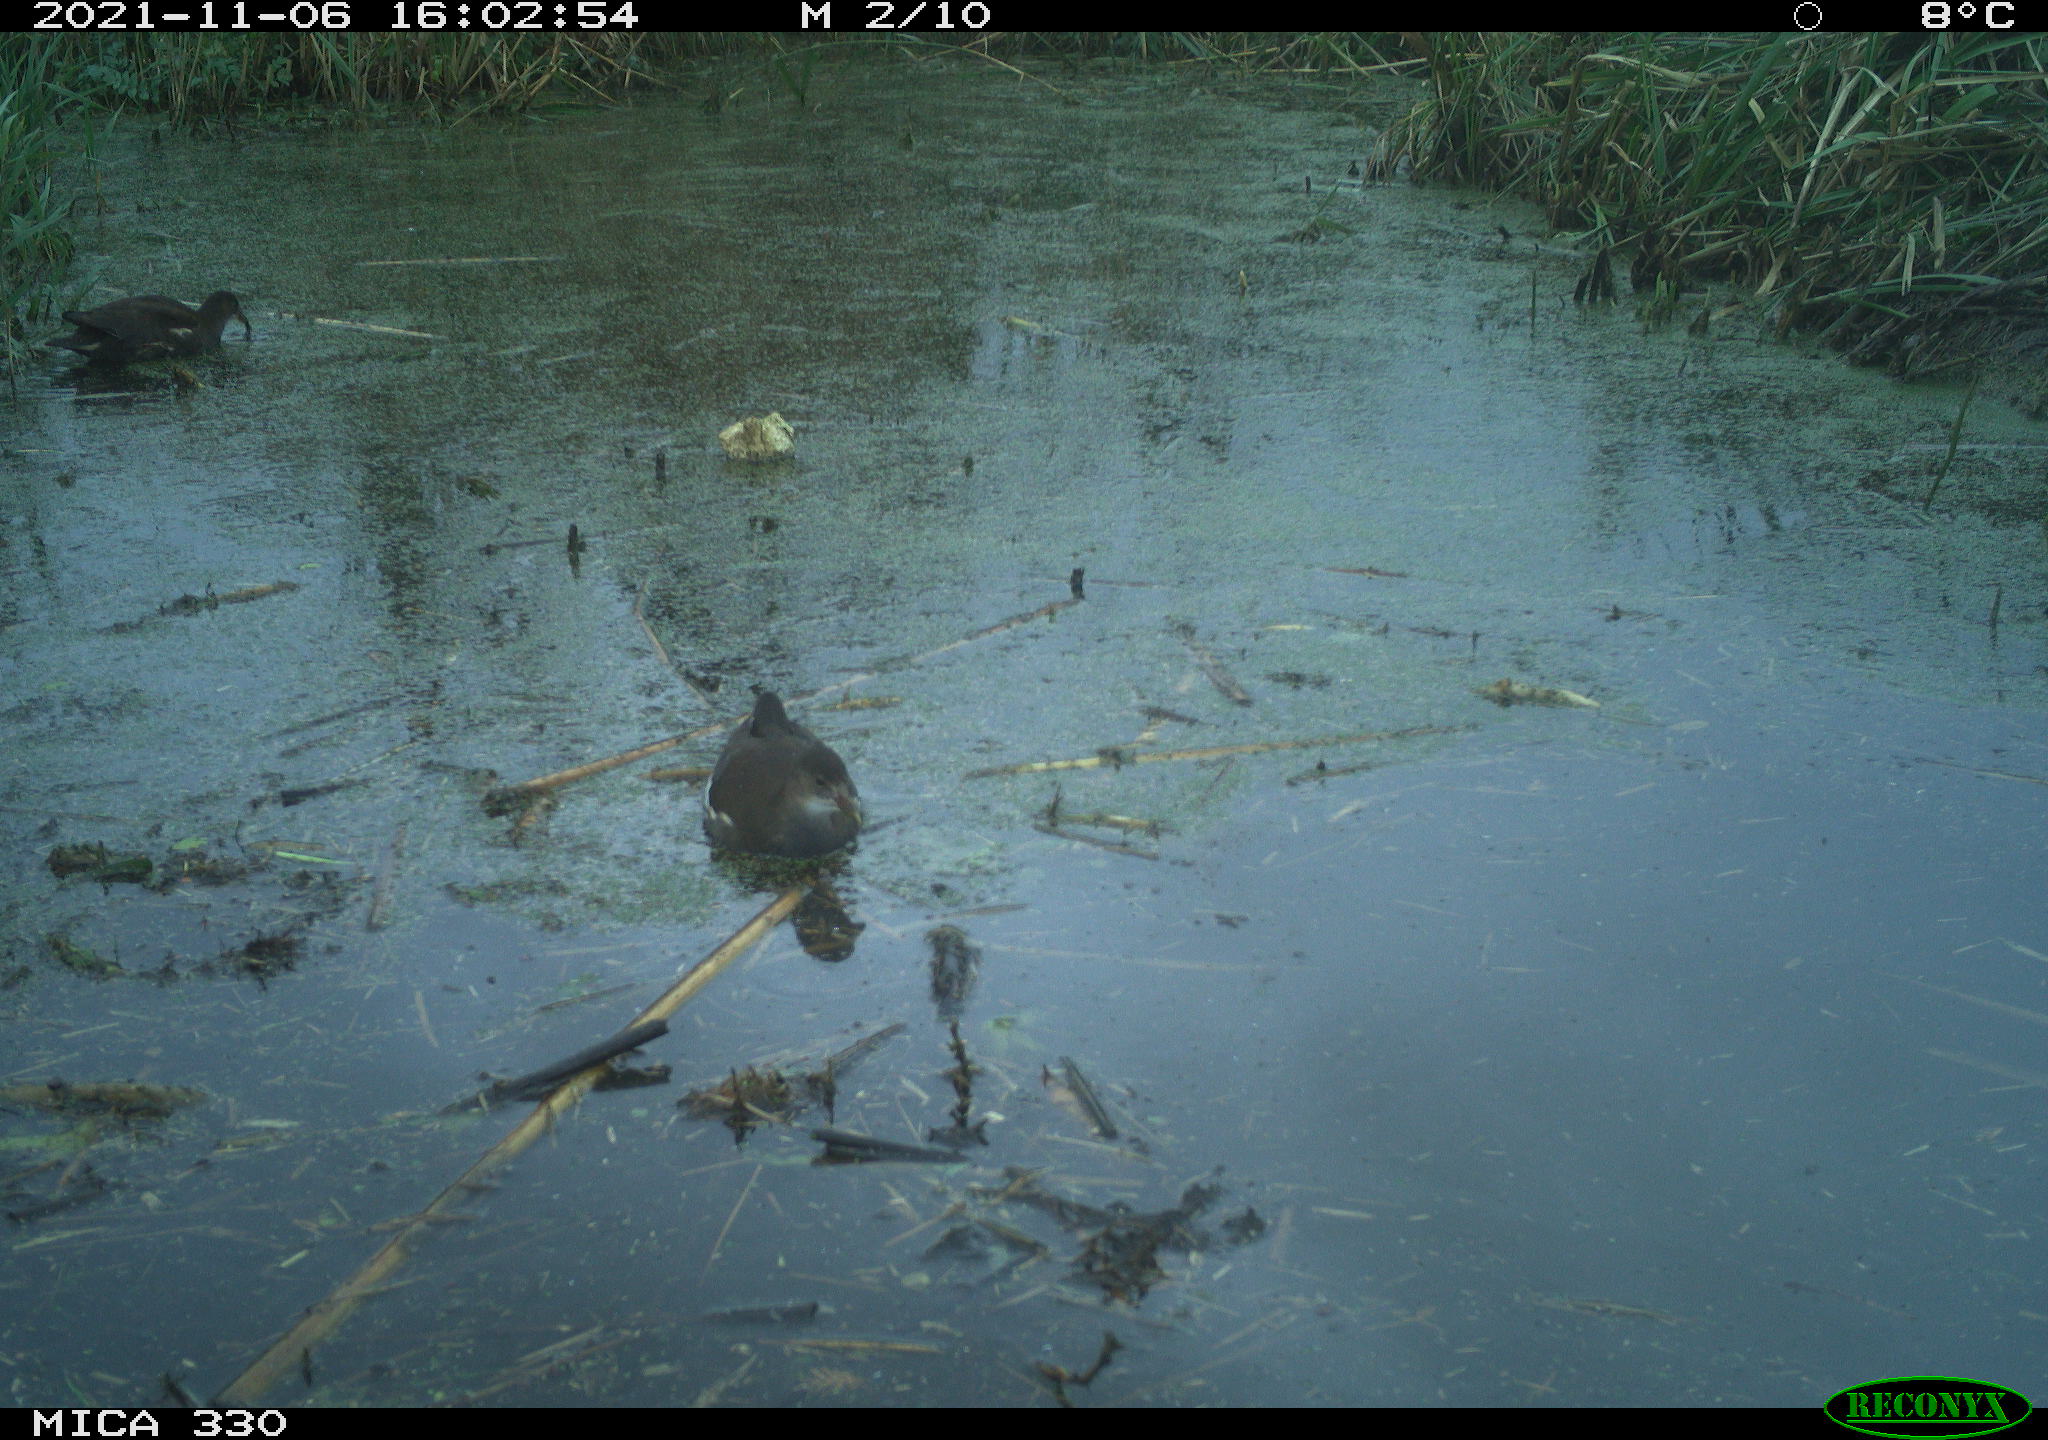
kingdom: Animalia
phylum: Chordata
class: Aves
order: Gruiformes
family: Rallidae
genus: Gallinula
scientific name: Gallinula chloropus
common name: Common moorhen
